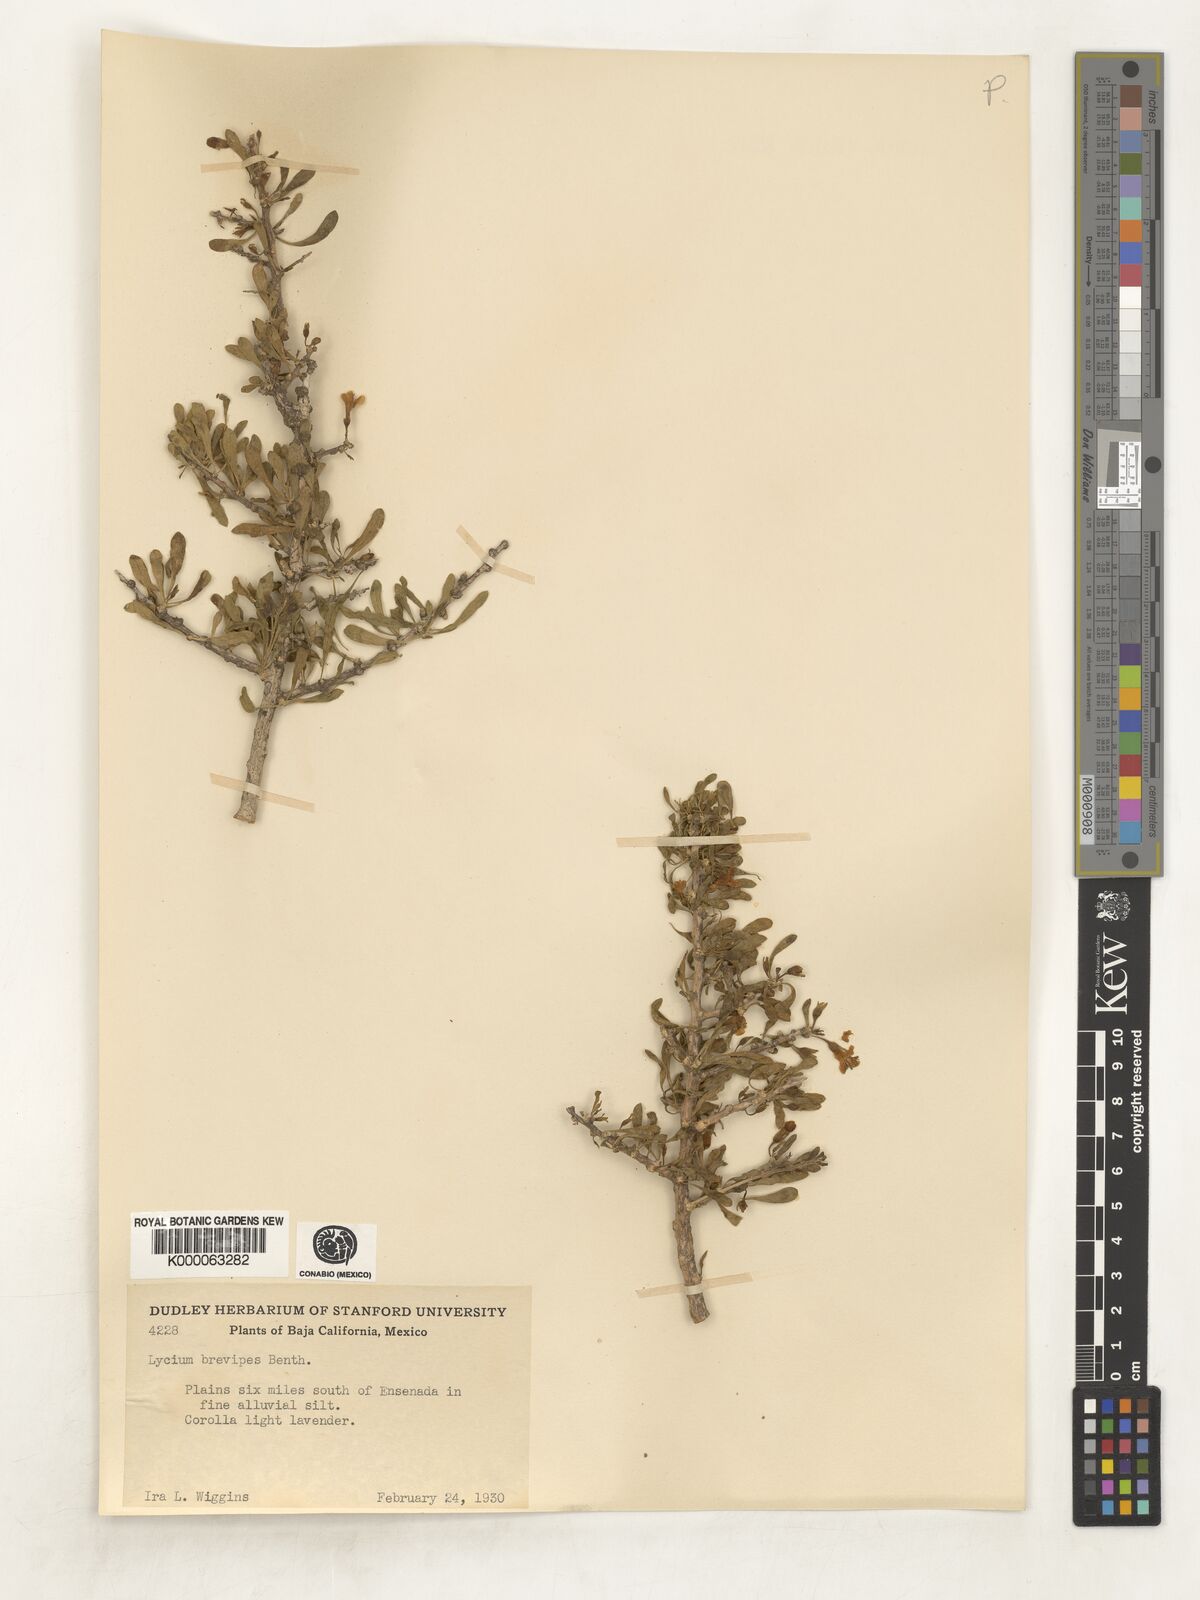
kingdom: Plantae
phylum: Tracheophyta
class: Magnoliopsida
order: Solanales
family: Solanaceae
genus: Lycium
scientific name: Lycium brevipes
